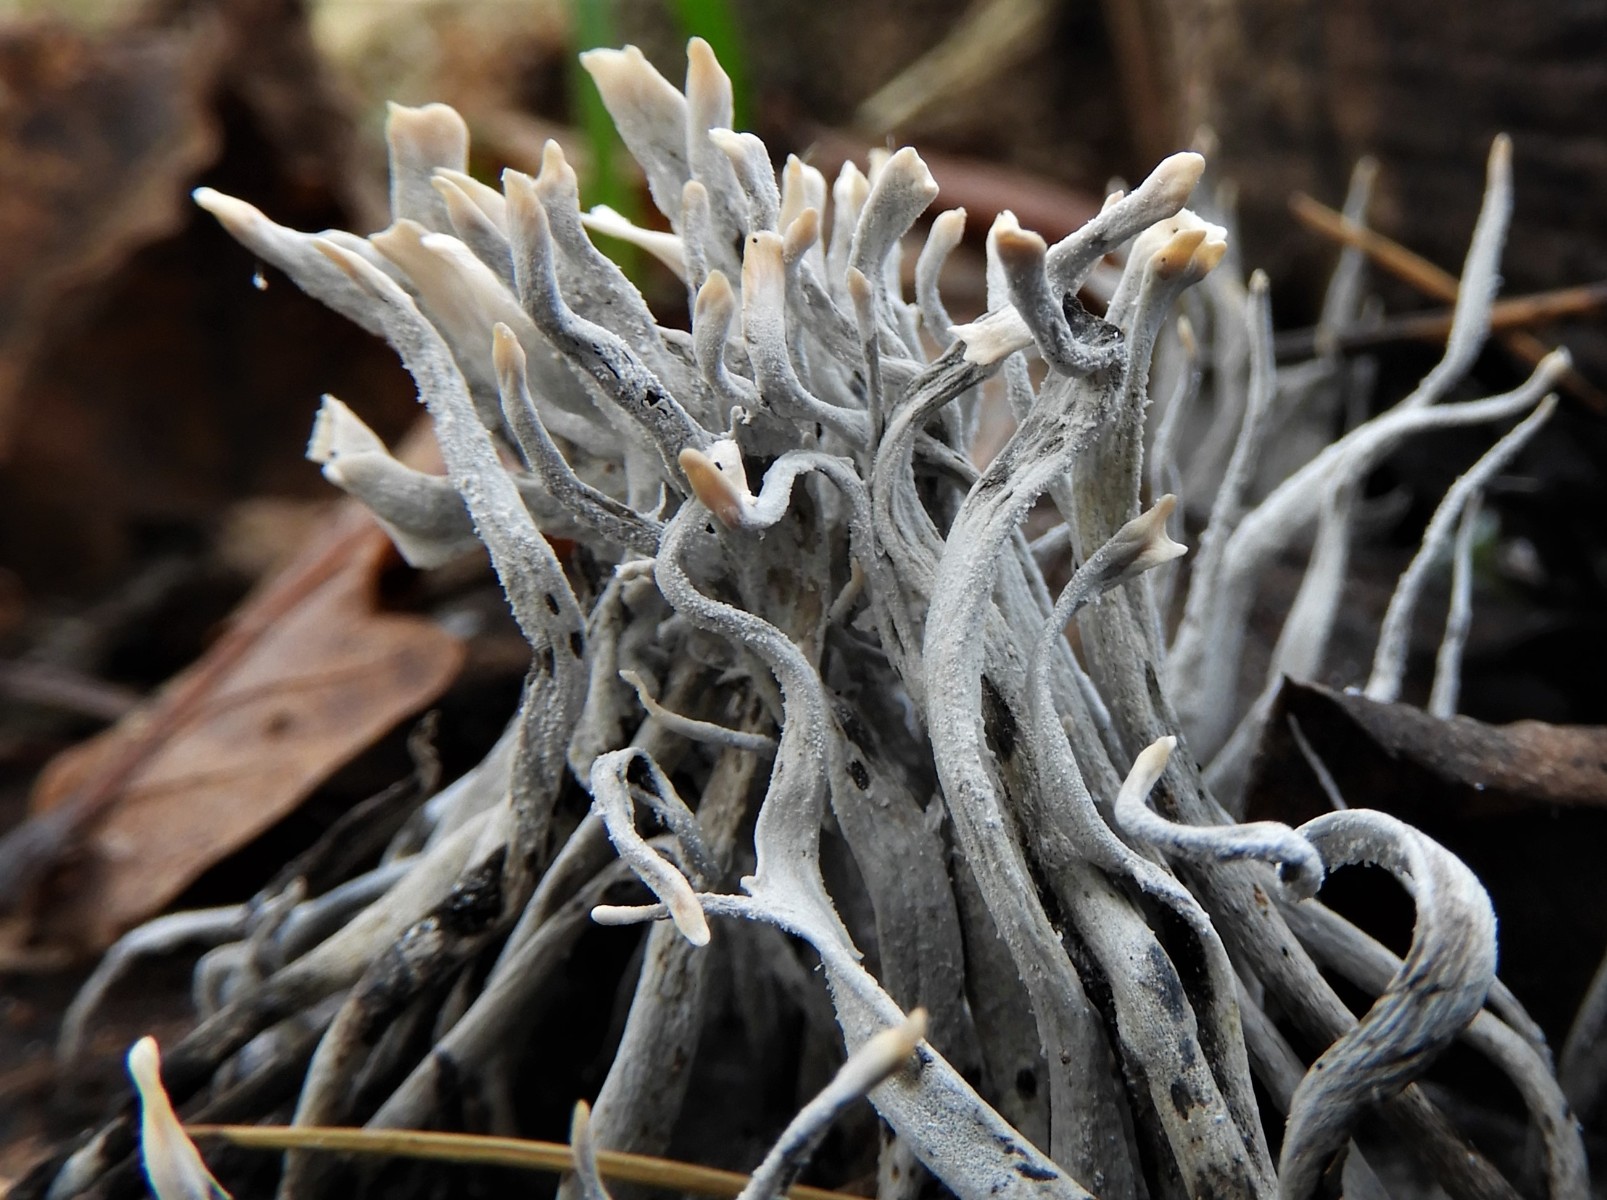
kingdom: Fungi
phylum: Ascomycota
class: Sordariomycetes
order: Xylariales
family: Xylariaceae
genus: Xylaria
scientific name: Xylaria hypoxylon
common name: grenet stødsvamp
